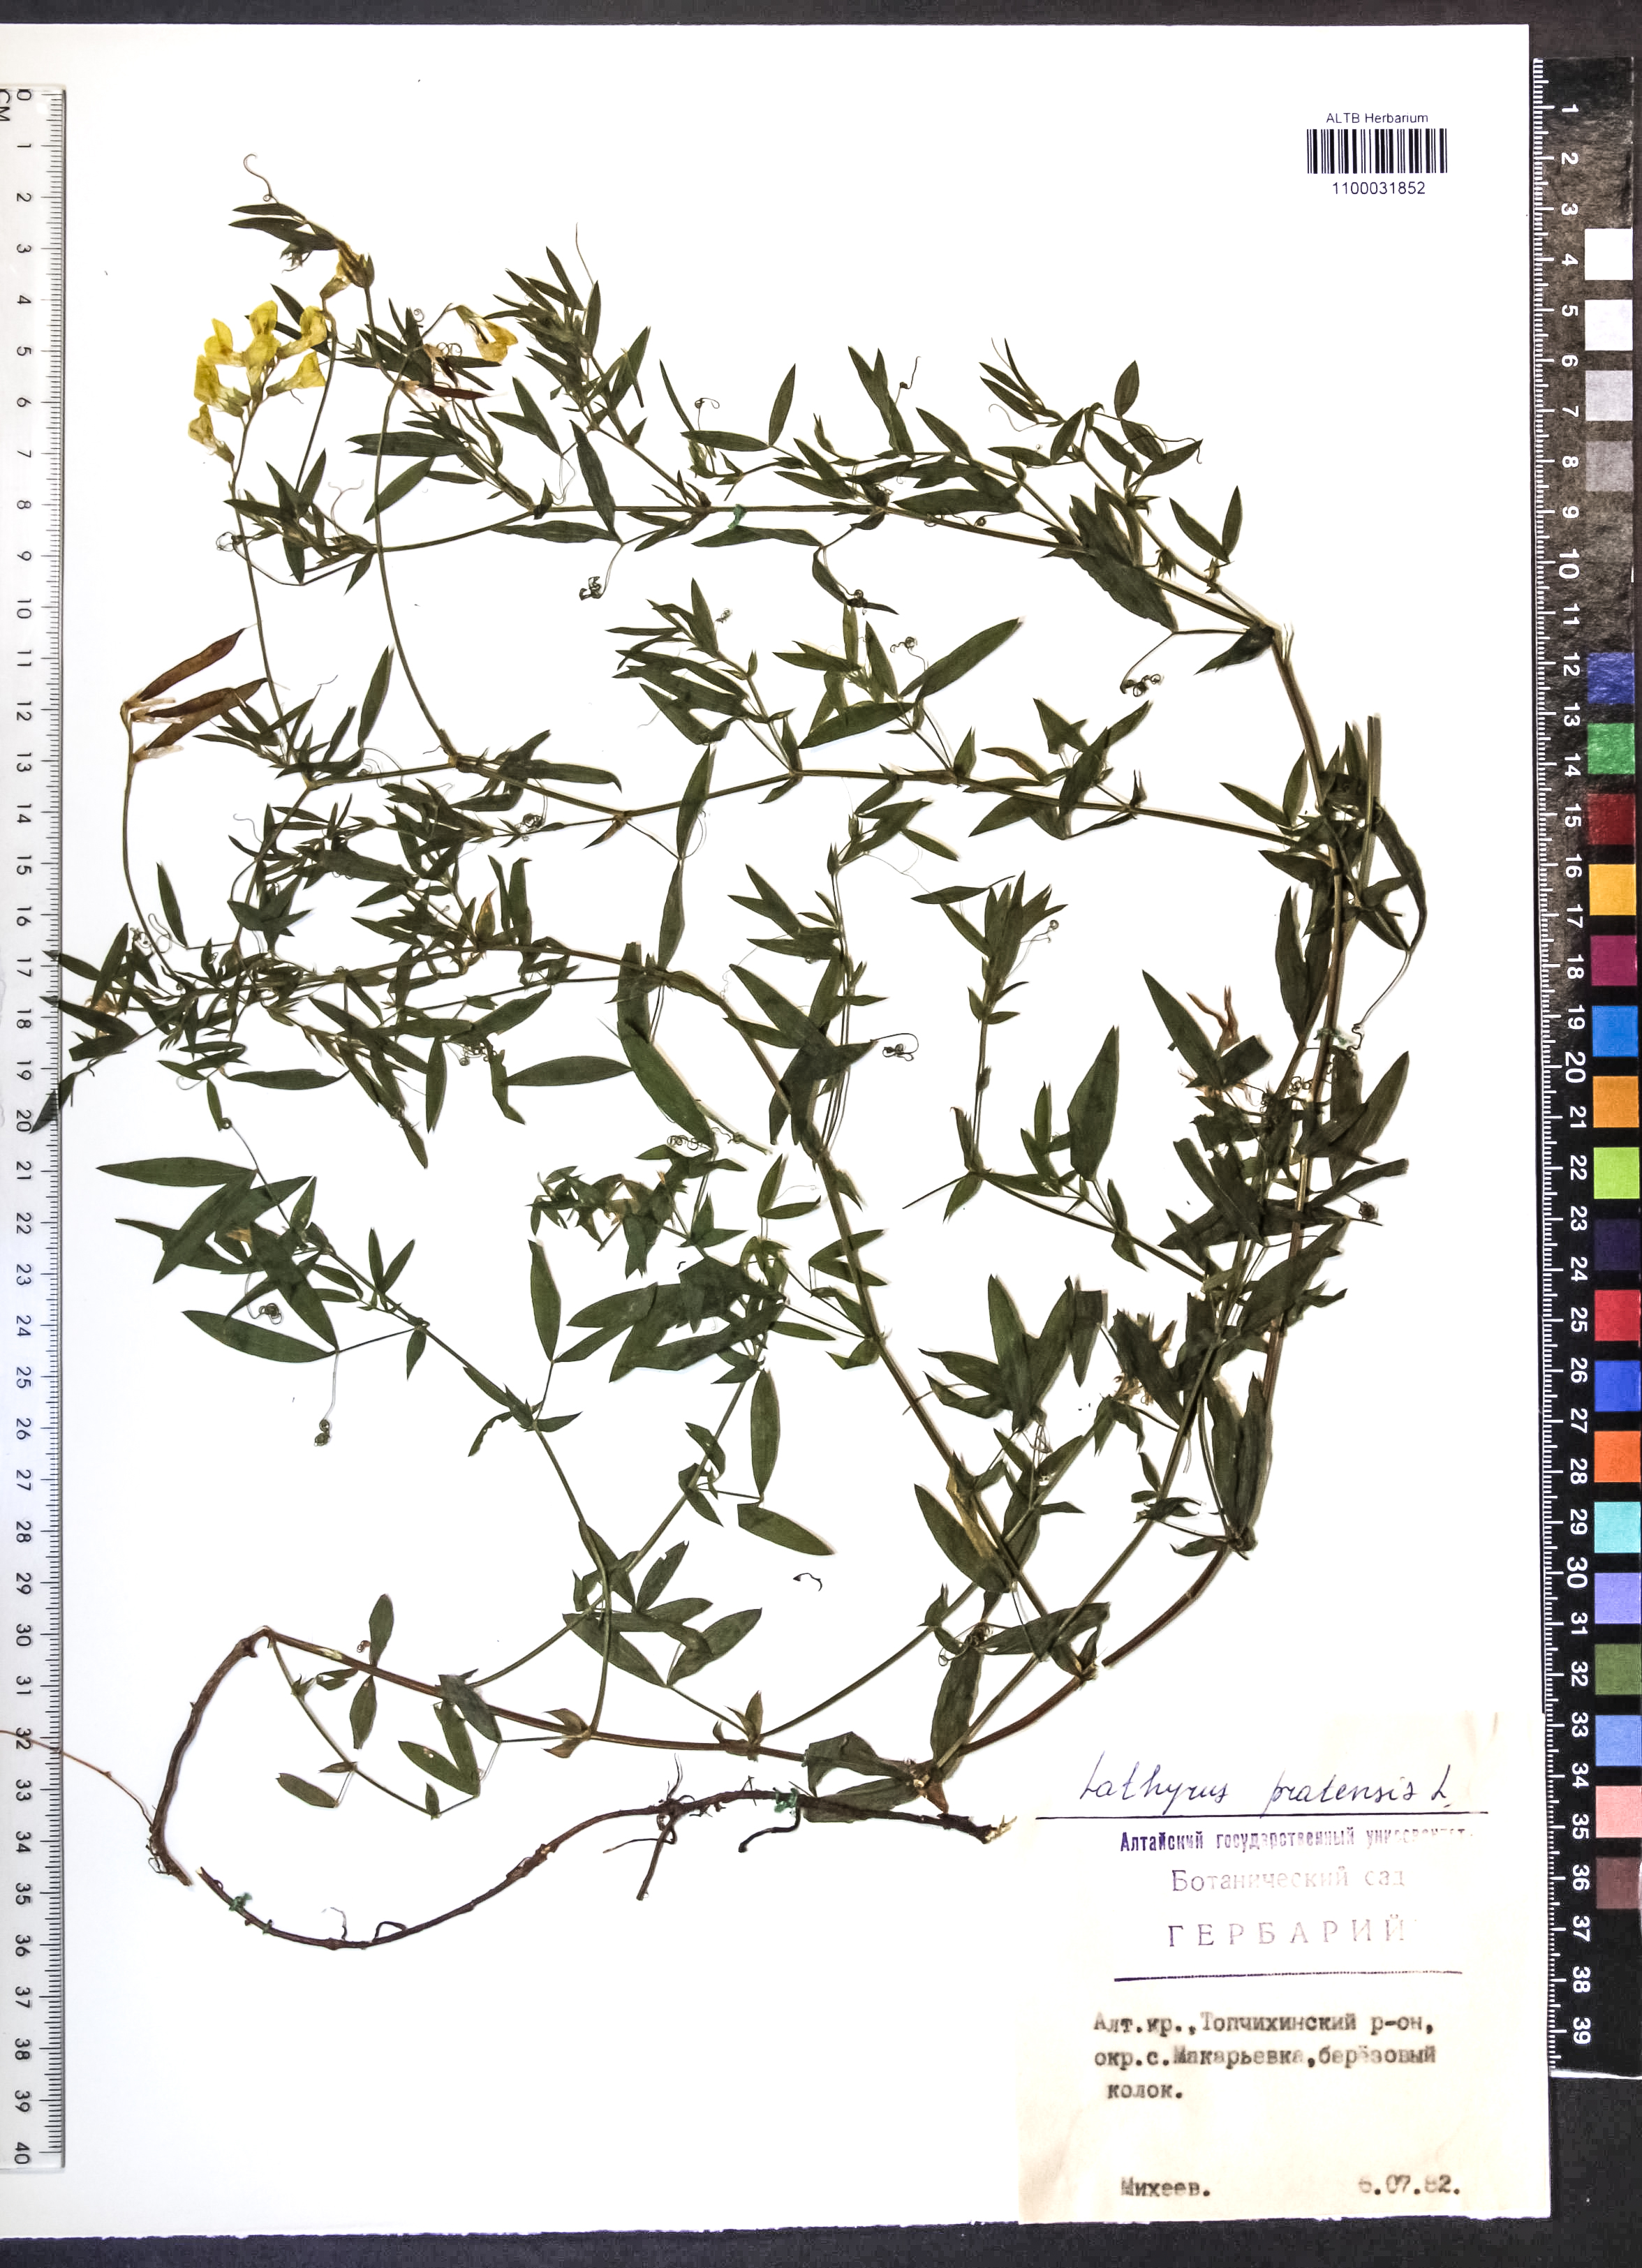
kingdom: Plantae
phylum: Tracheophyta
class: Magnoliopsida
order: Fabales
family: Fabaceae
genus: Lathyrus
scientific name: Lathyrus pratensis
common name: Meadow vetchling
